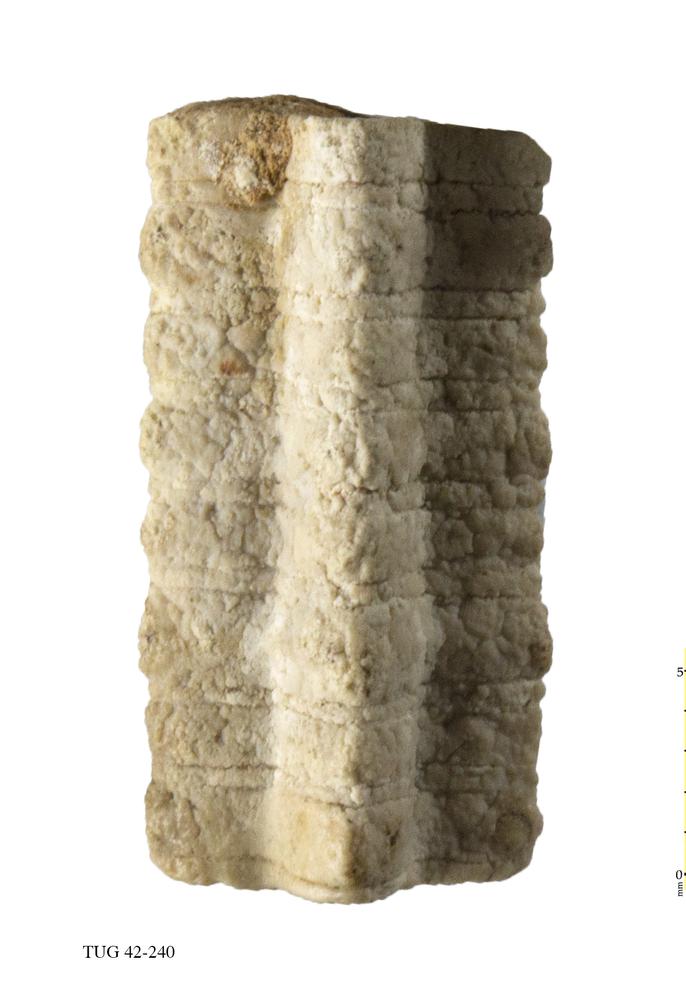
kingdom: Animalia
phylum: Echinodermata
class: Crinoidea
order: Isocrinida
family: Pentacrinitidae
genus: Pentacrinites
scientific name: Pentacrinites
